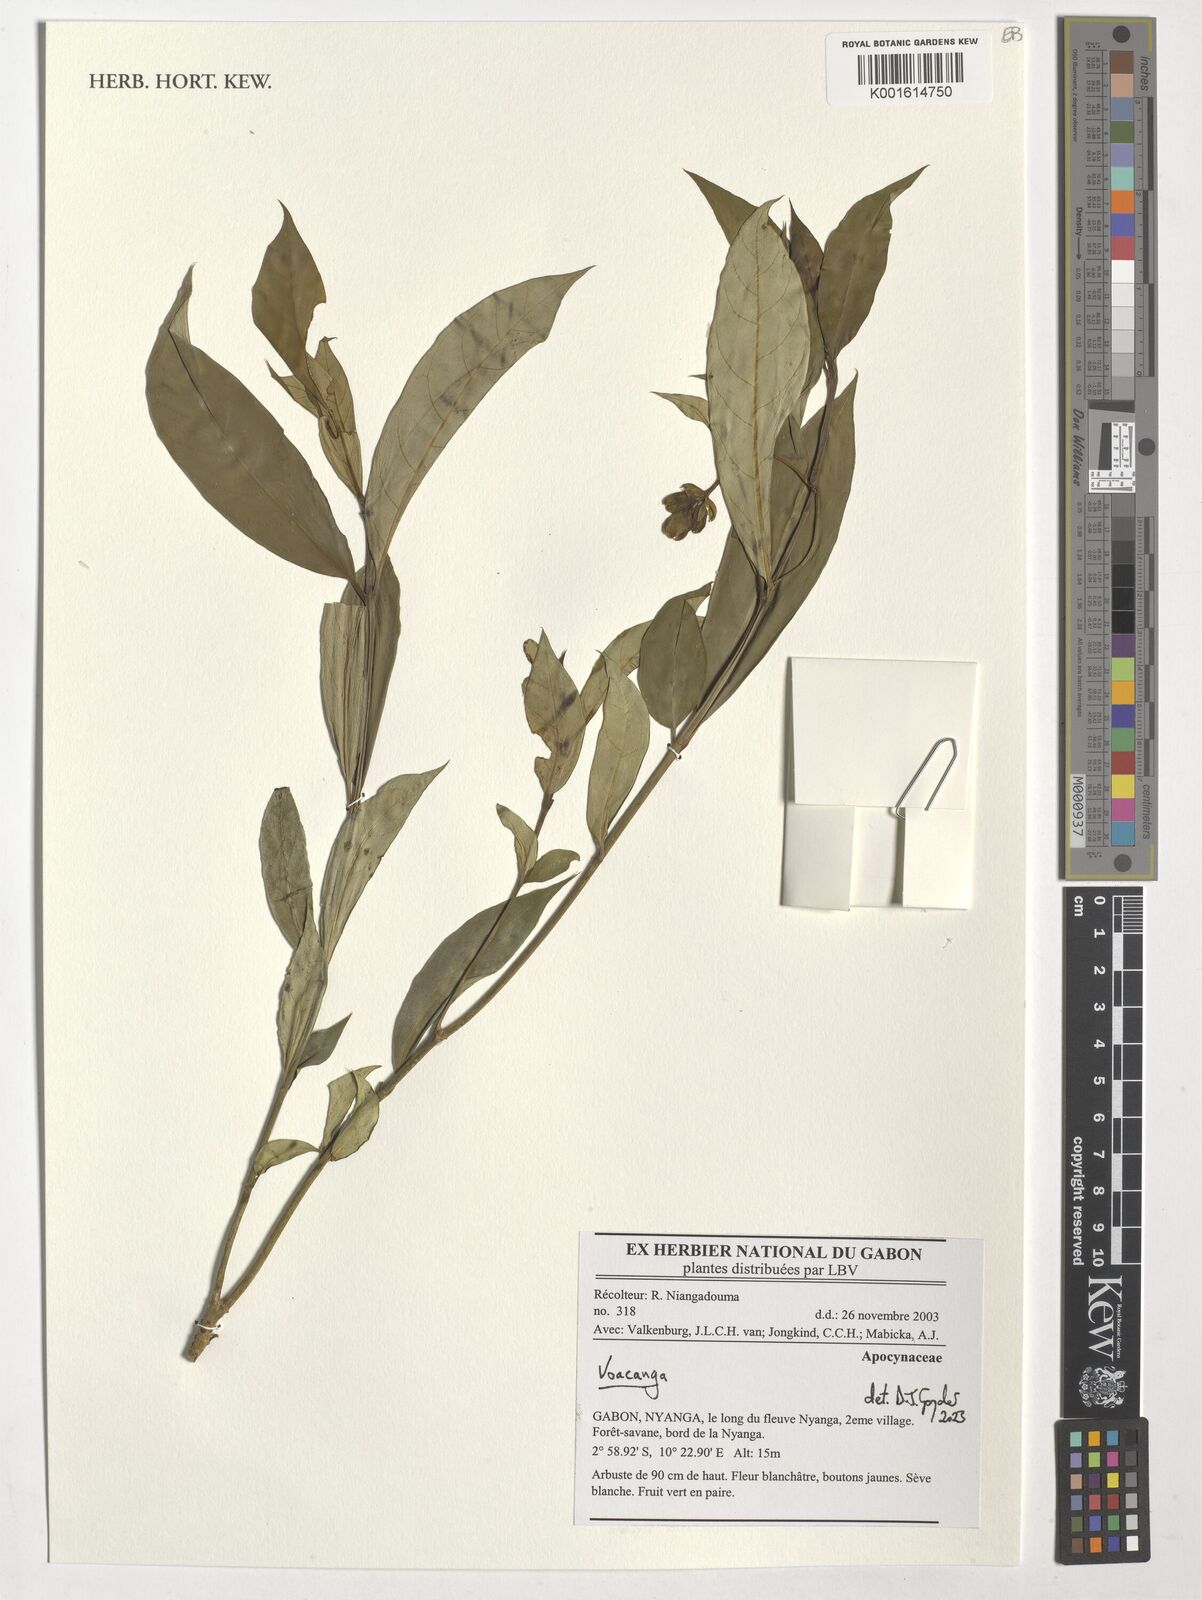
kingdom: Plantae
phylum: Tracheophyta
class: Magnoliopsida
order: Gentianales
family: Apocynaceae
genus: Voacanga
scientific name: Voacanga
